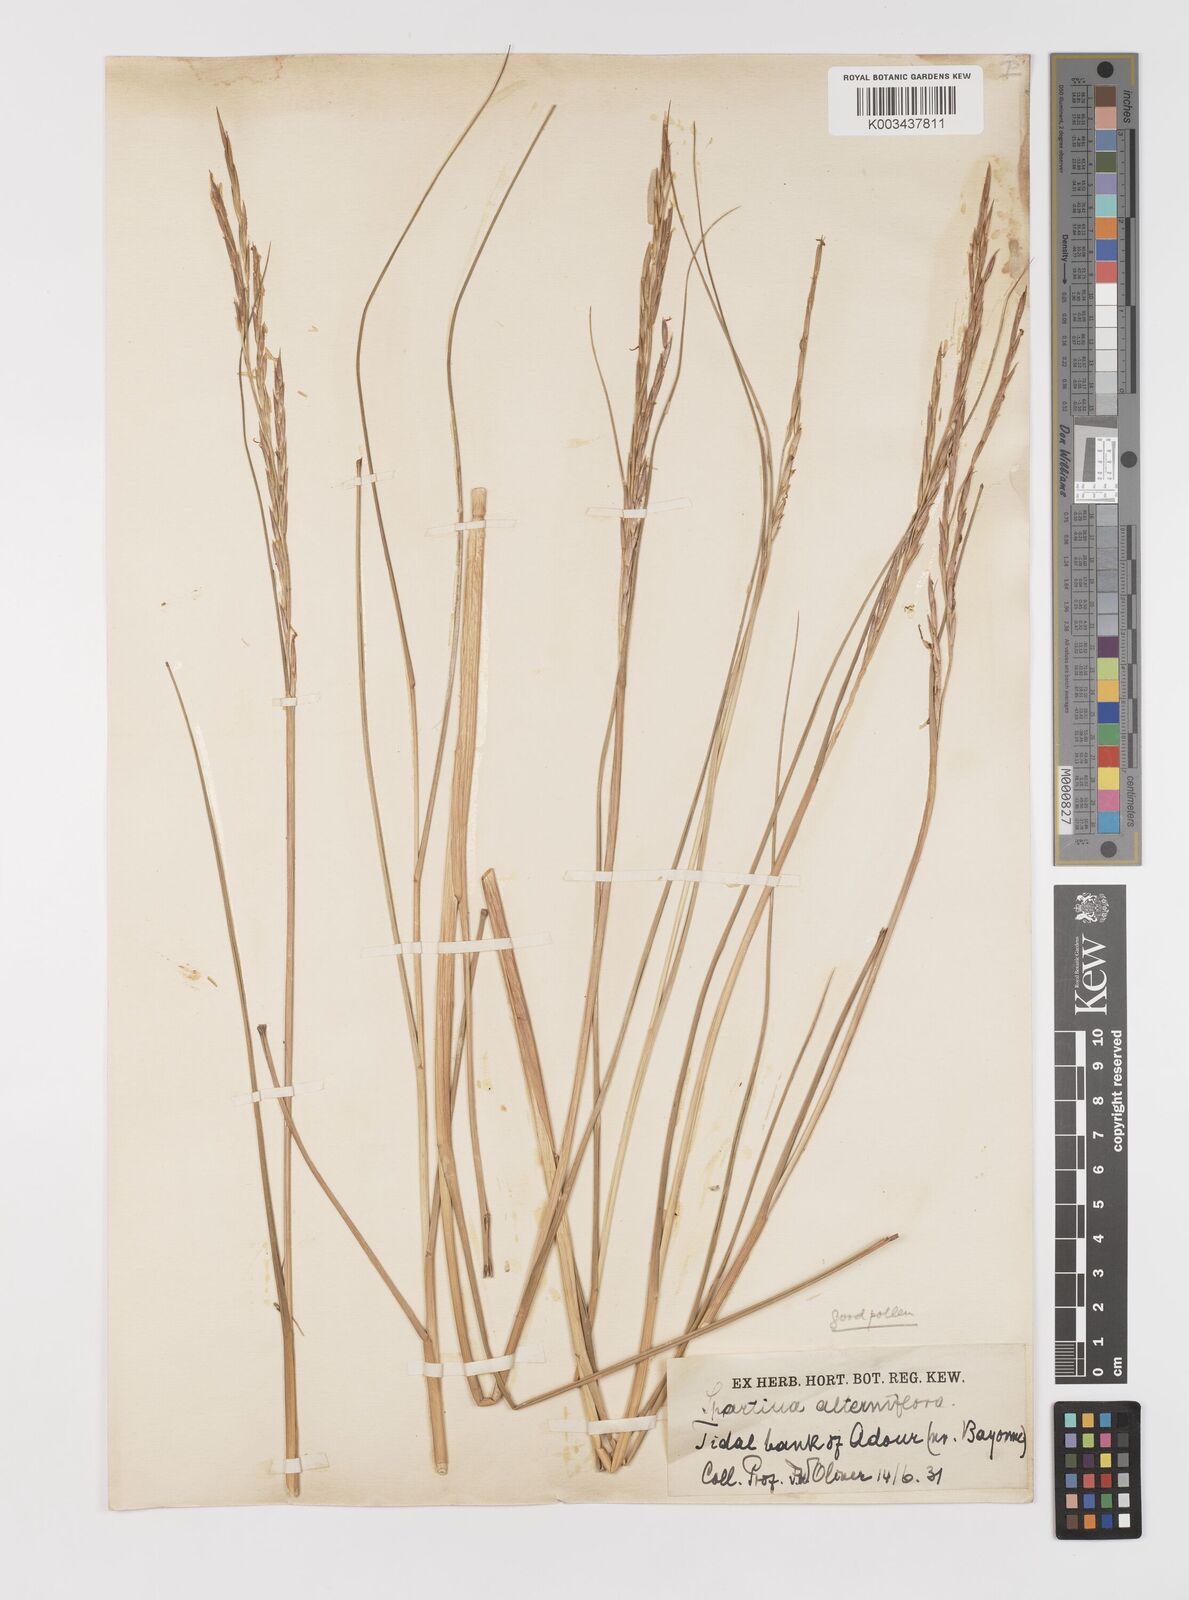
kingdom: Plantae
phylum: Tracheophyta
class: Liliopsida
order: Poales
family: Poaceae
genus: Sporobolus
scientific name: Sporobolus alterniflorus
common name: Atlantic cordgrass
